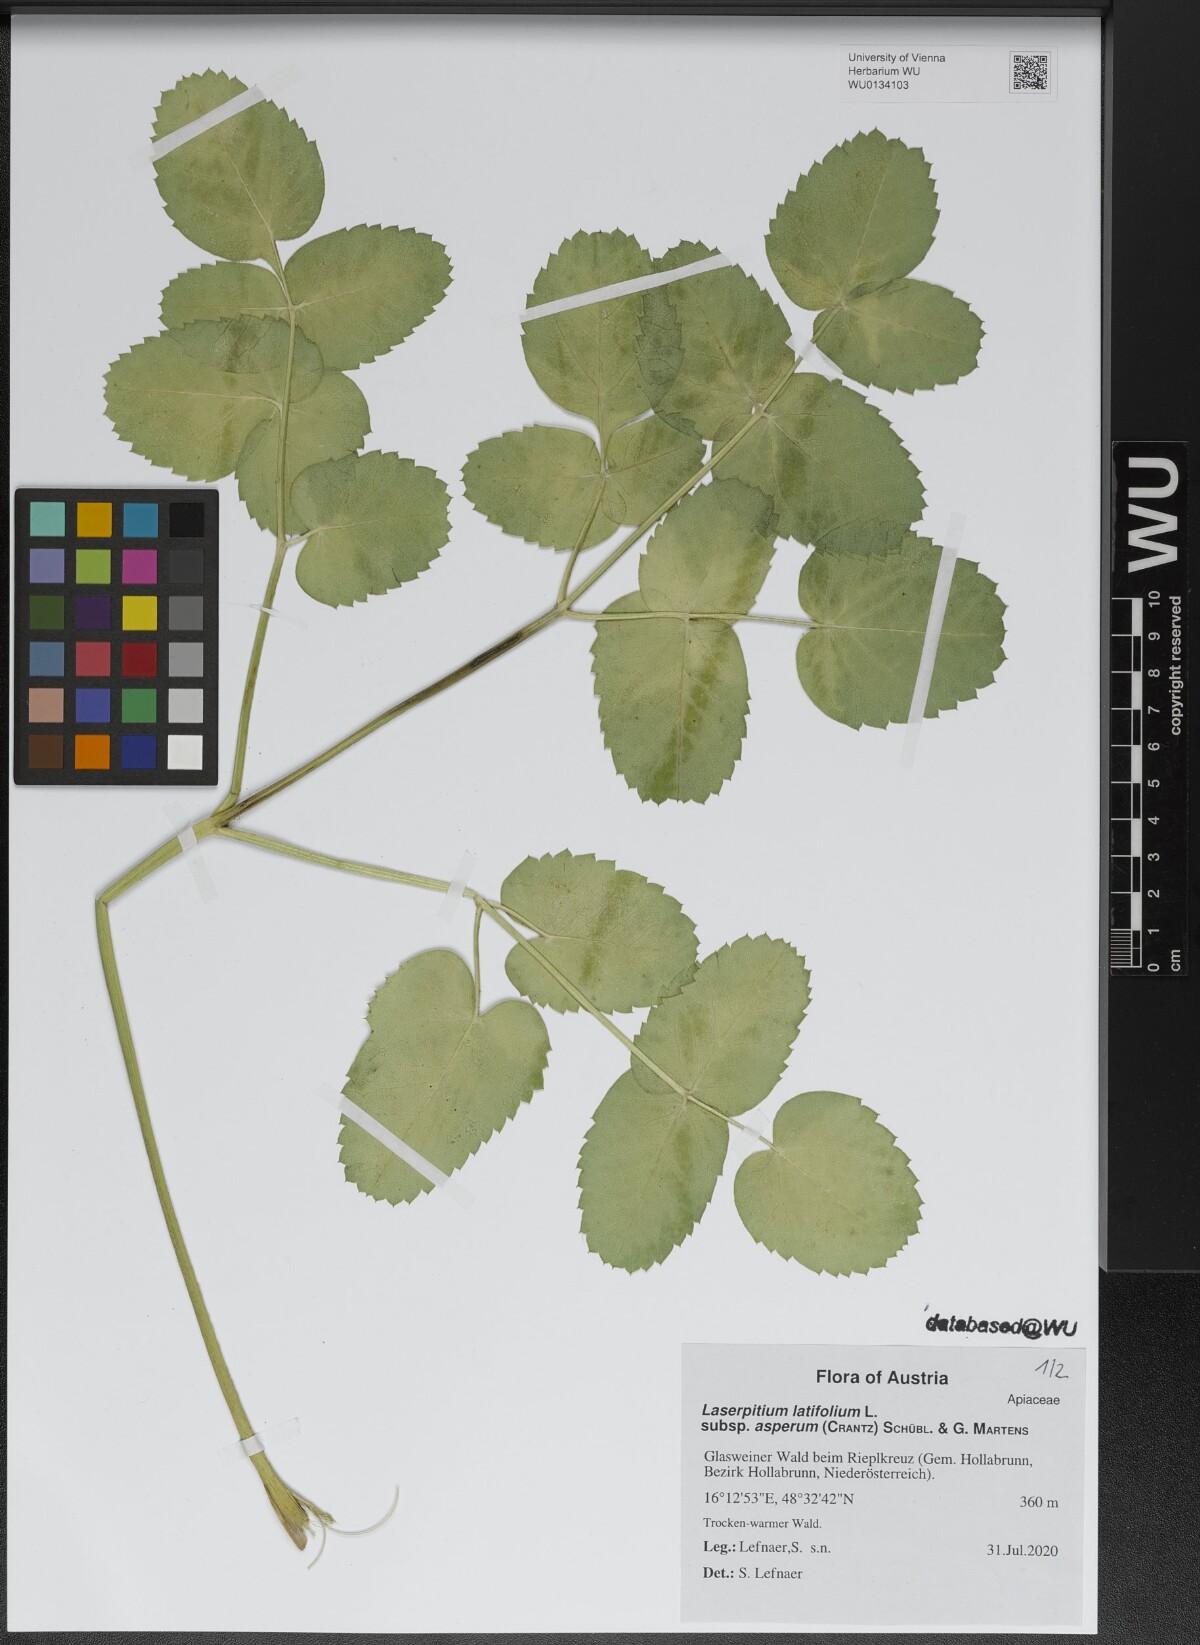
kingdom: Plantae
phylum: Tracheophyta
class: Magnoliopsida
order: Apiales
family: Apiaceae
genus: Laserpitium
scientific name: Laserpitium latifolium
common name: Broadleaf sermountain
